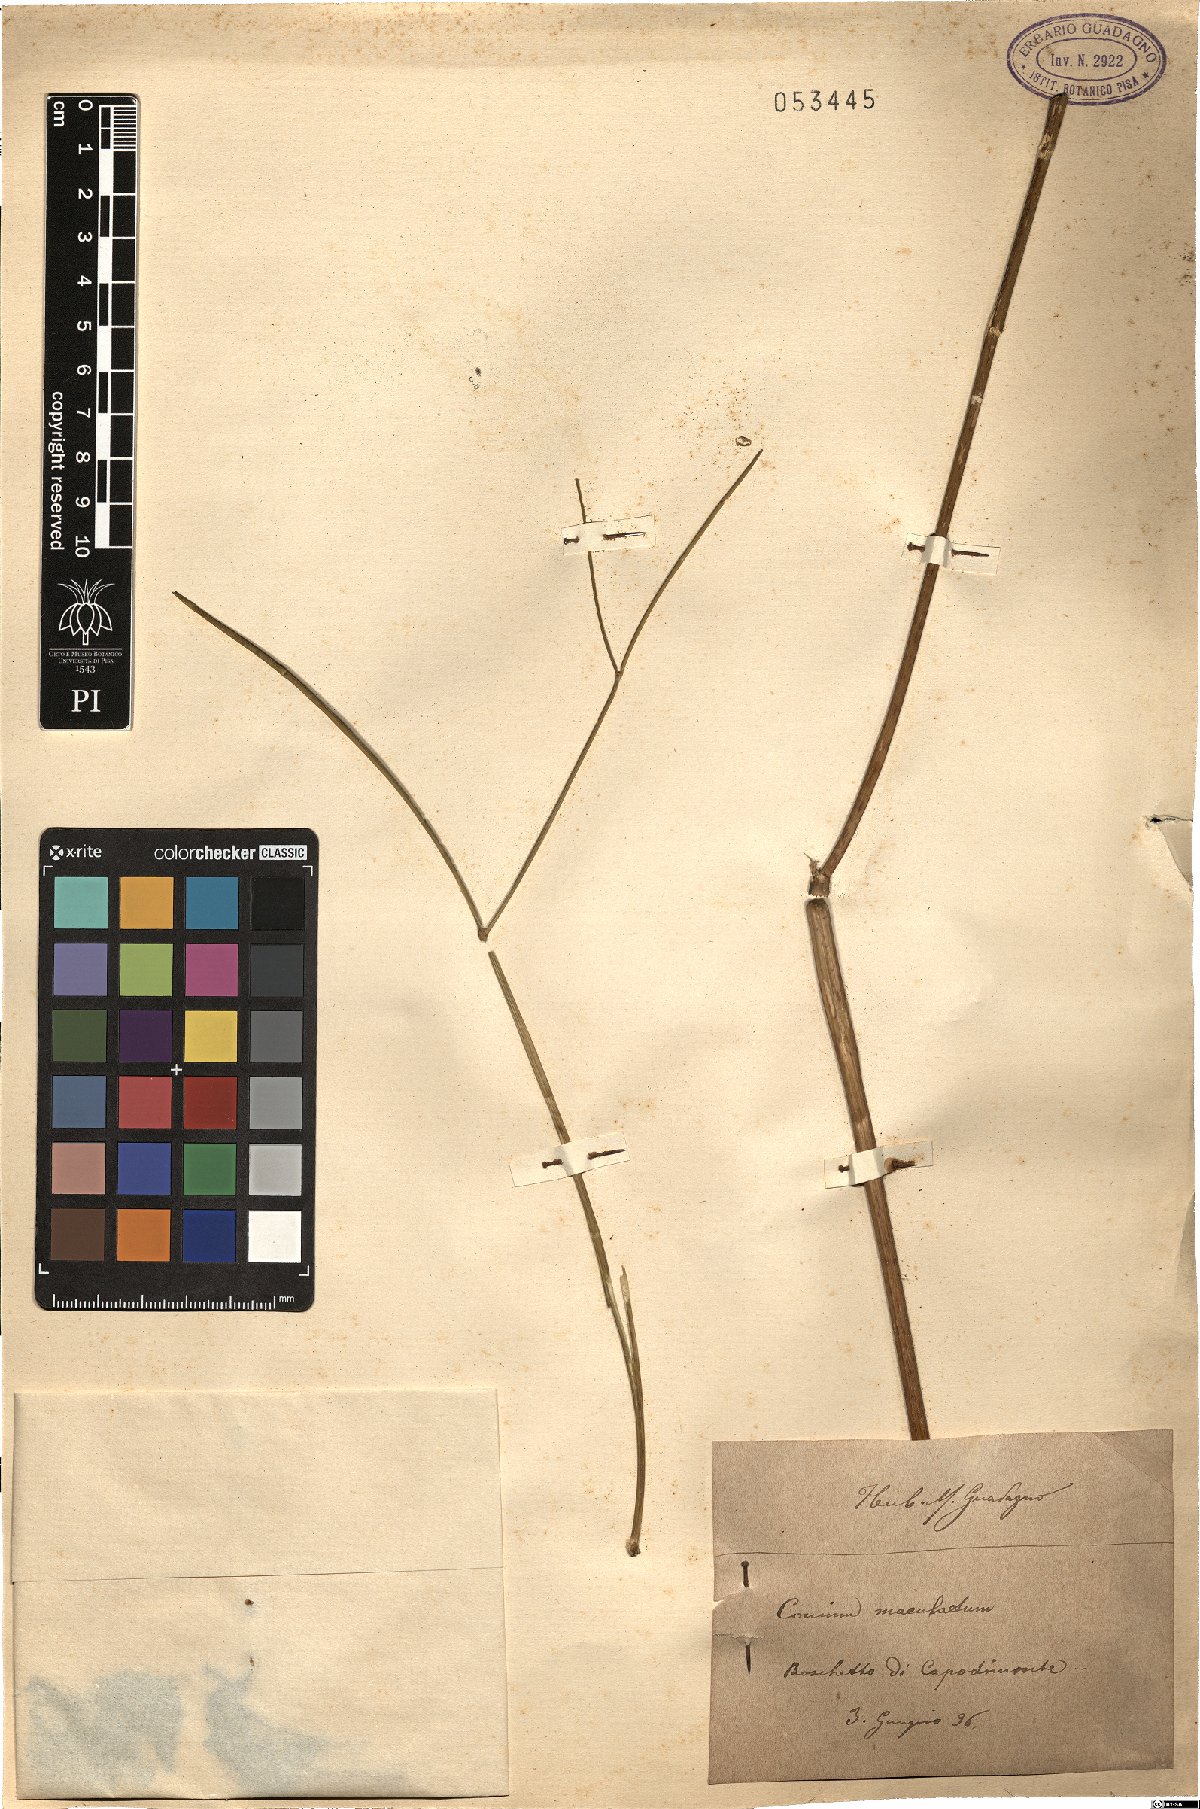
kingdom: Plantae
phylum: Tracheophyta
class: Magnoliopsida
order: Apiales
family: Apiaceae
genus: Conium
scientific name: Conium maculatum
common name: Hemlock
